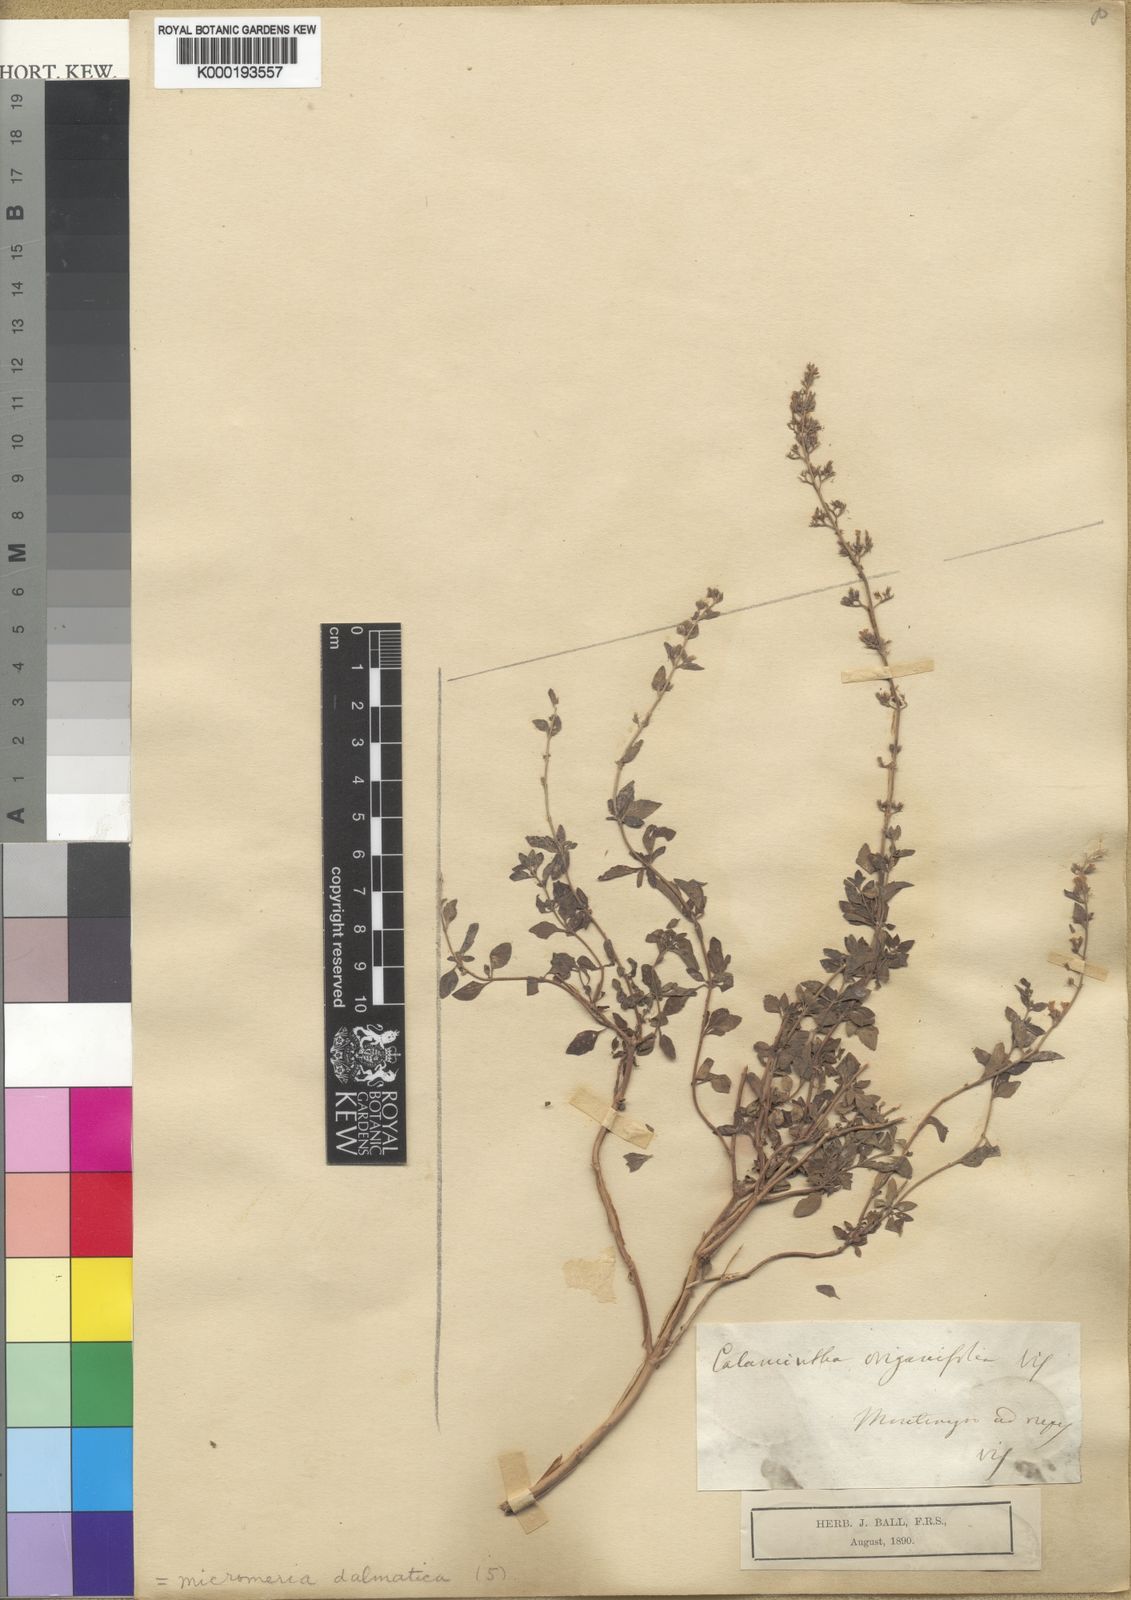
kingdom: Plantae
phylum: Tracheophyta
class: Magnoliopsida
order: Lamiales
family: Lamiaceae
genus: Clinopodium
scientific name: Clinopodium dalmaticum
